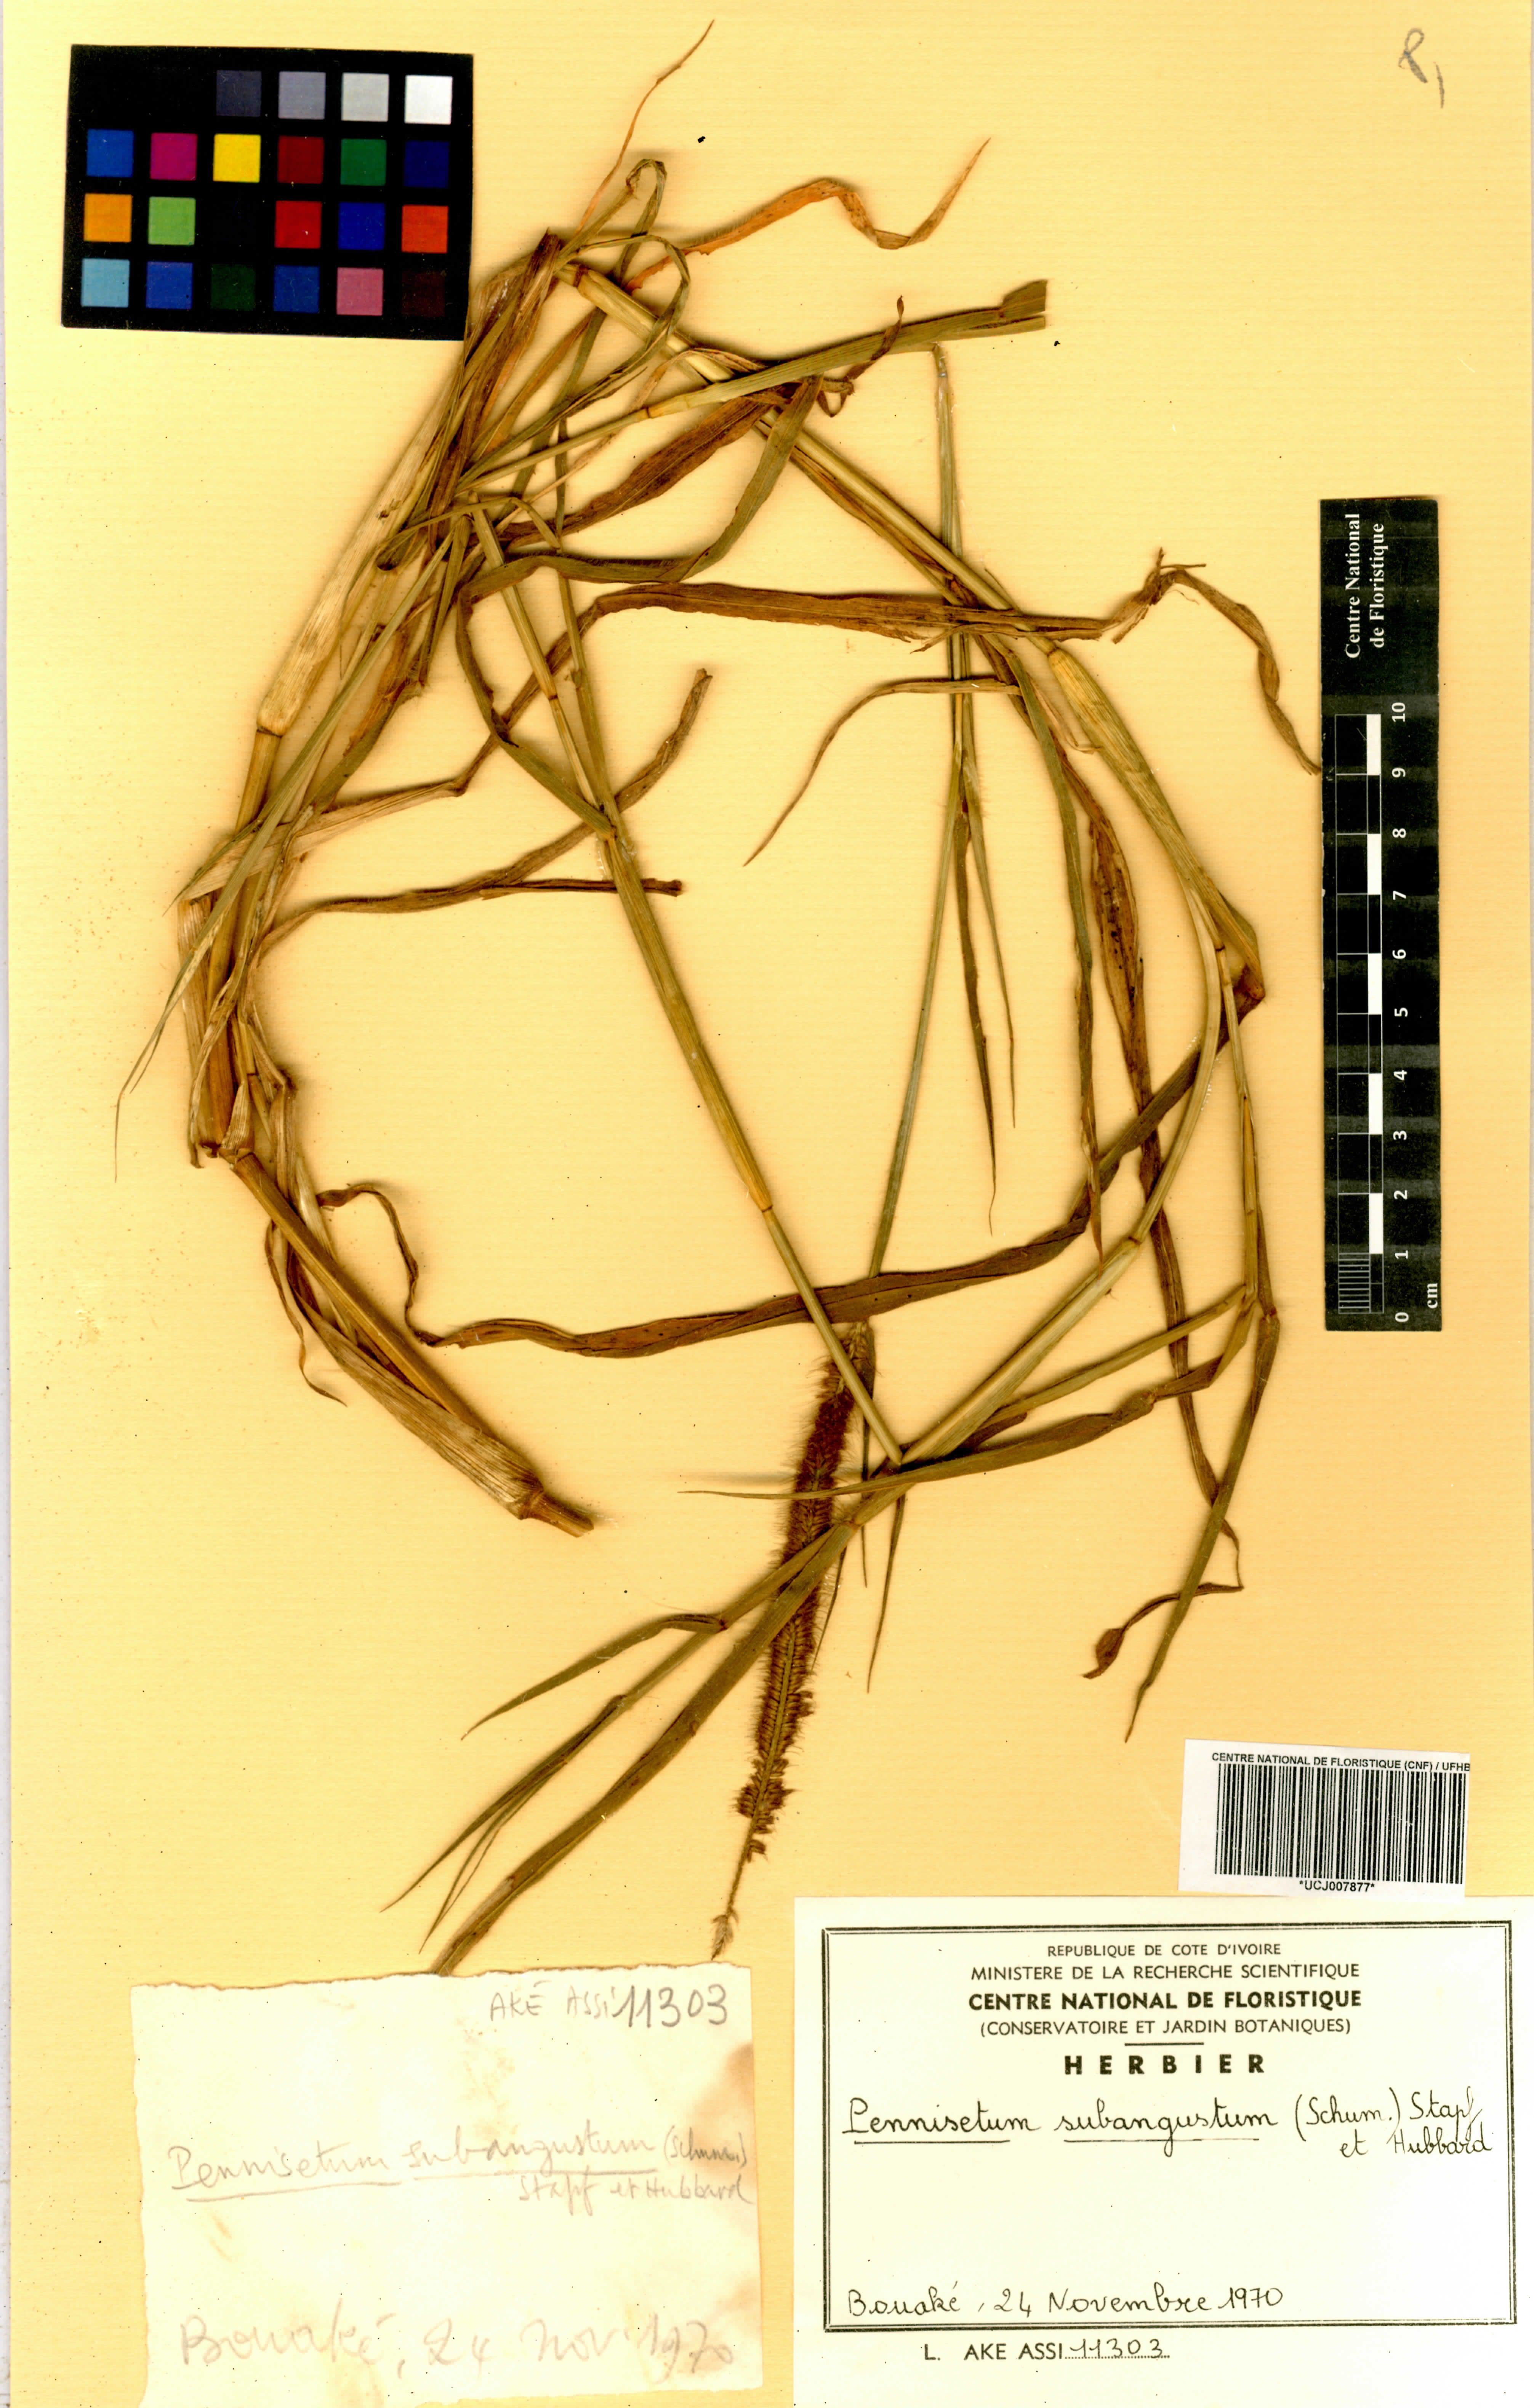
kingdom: Plantae
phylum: Tracheophyta
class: Liliopsida
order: Poales
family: Poaceae
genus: Cenchrus
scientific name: Cenchrus setosus
